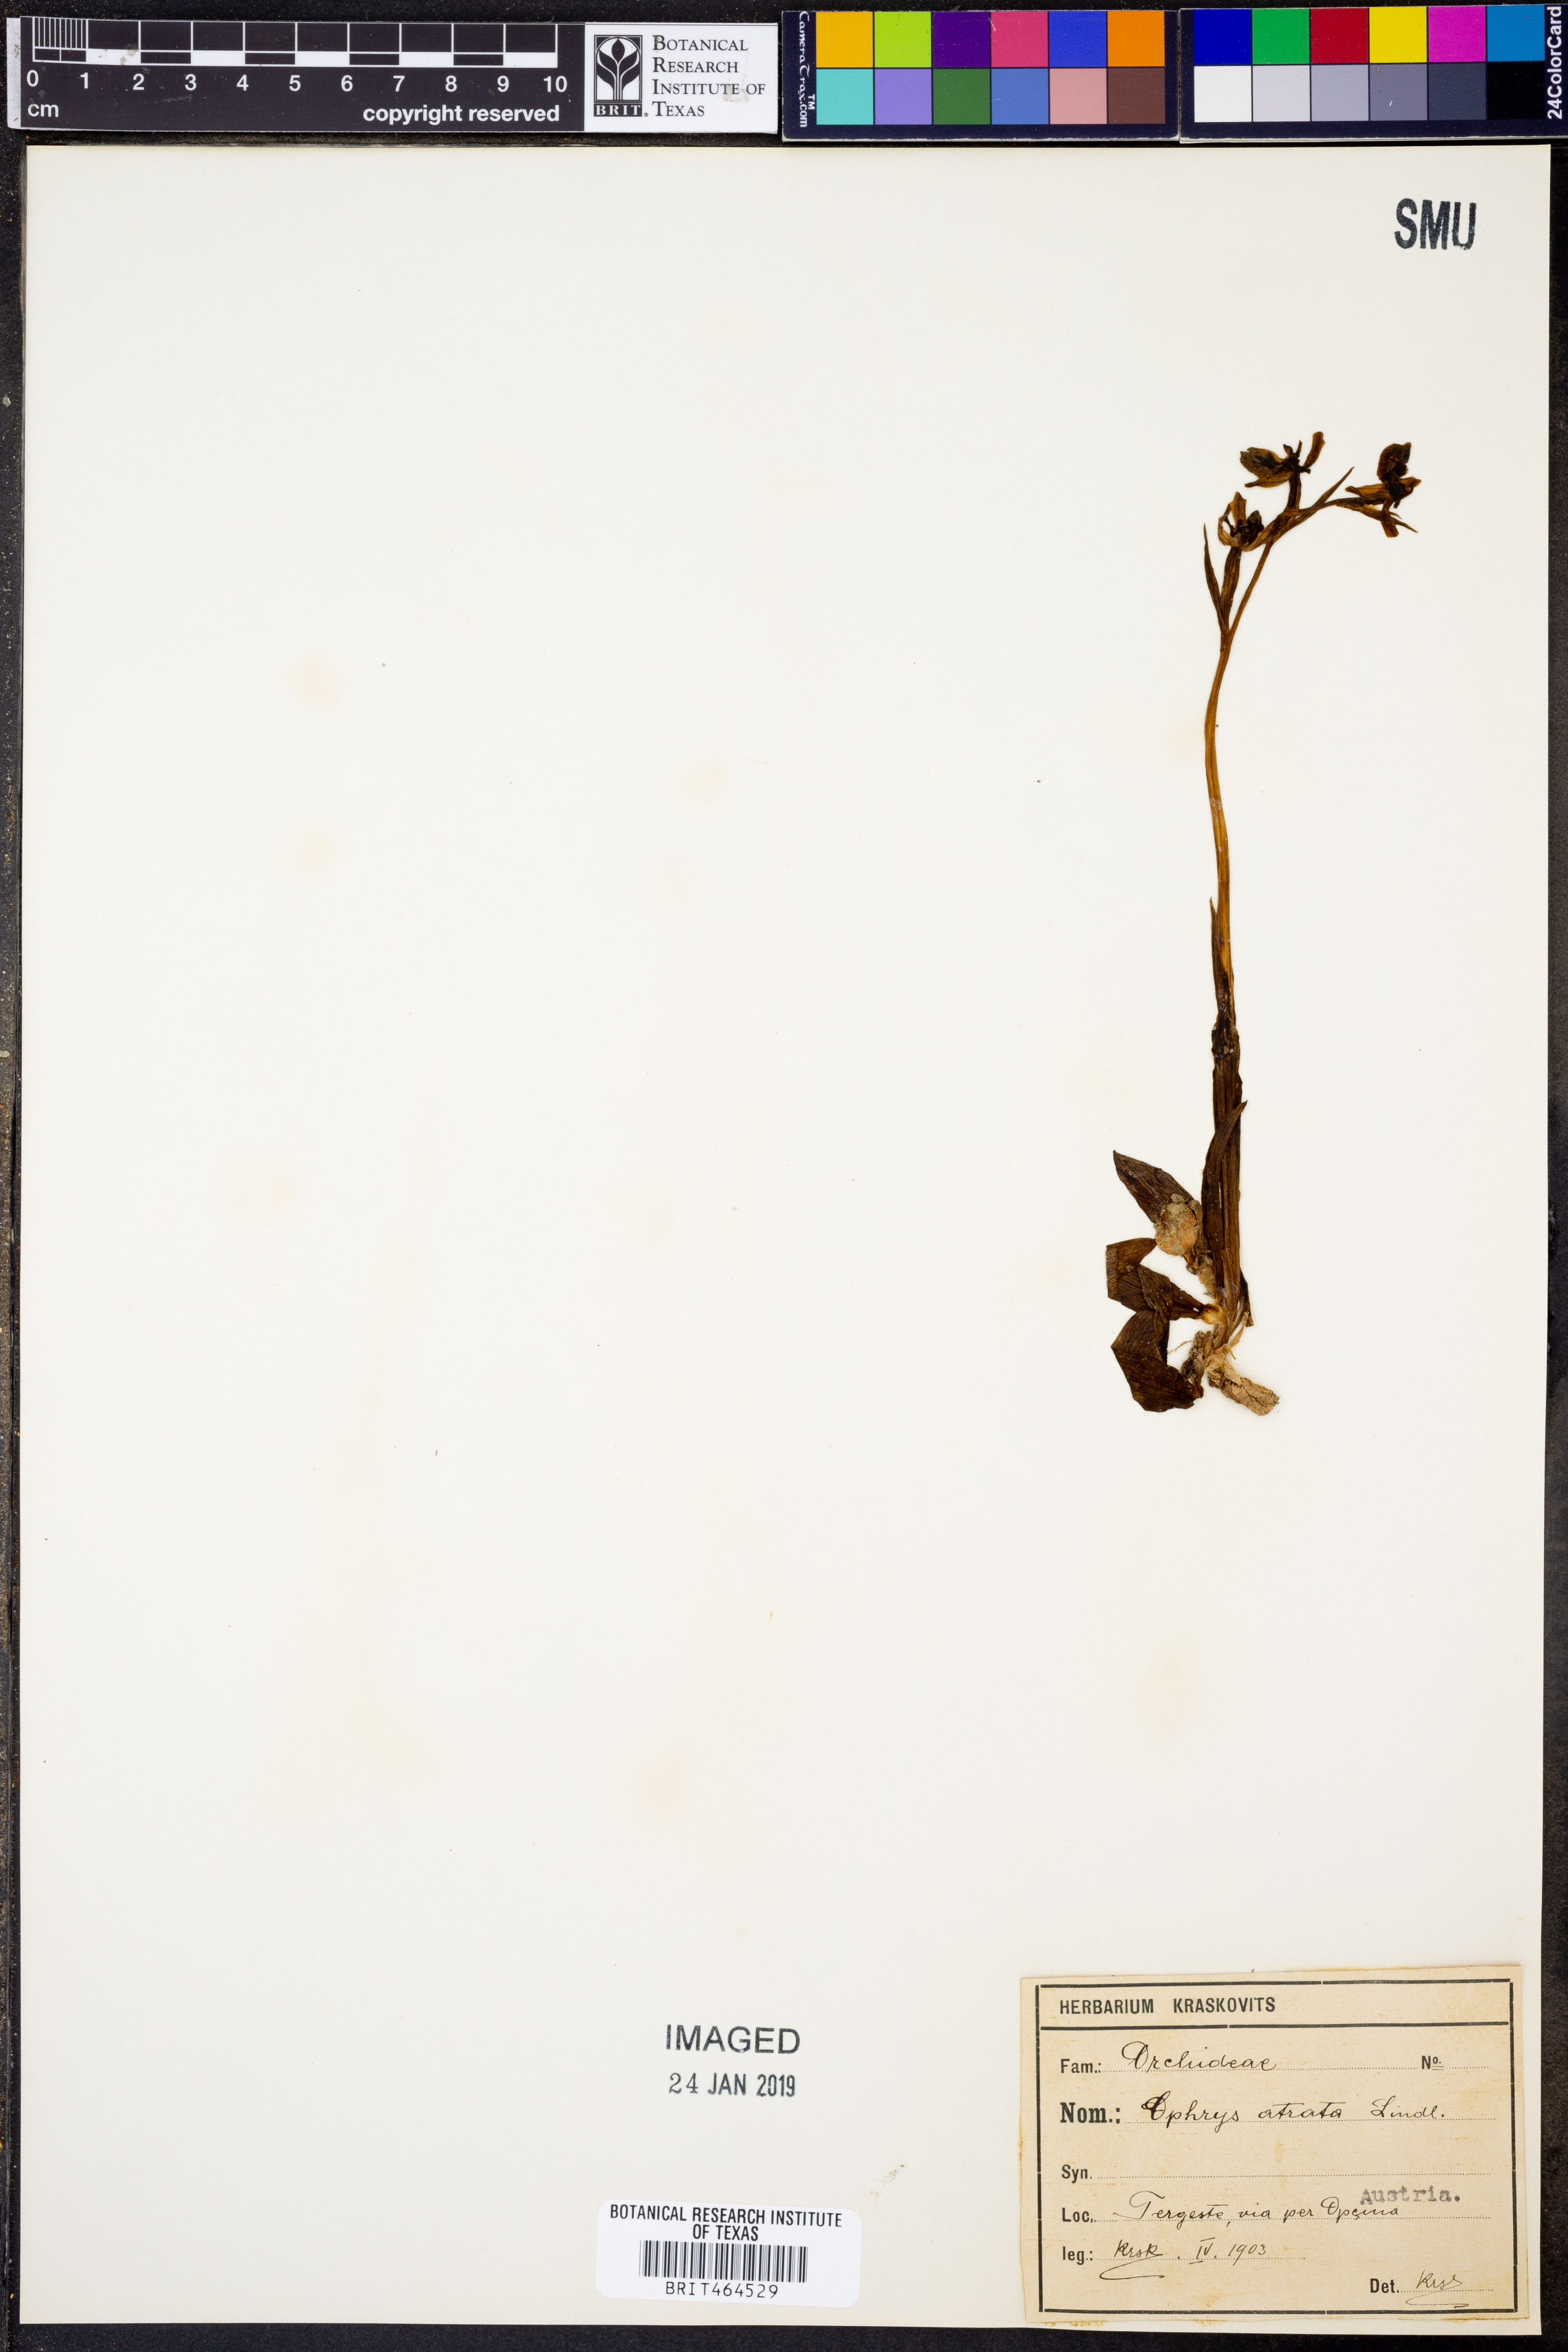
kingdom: Plantae
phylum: Tracheophyta
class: Liliopsida
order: Asparagales
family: Orchidaceae
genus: Ceratandra
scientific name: Ceratandra atrata
